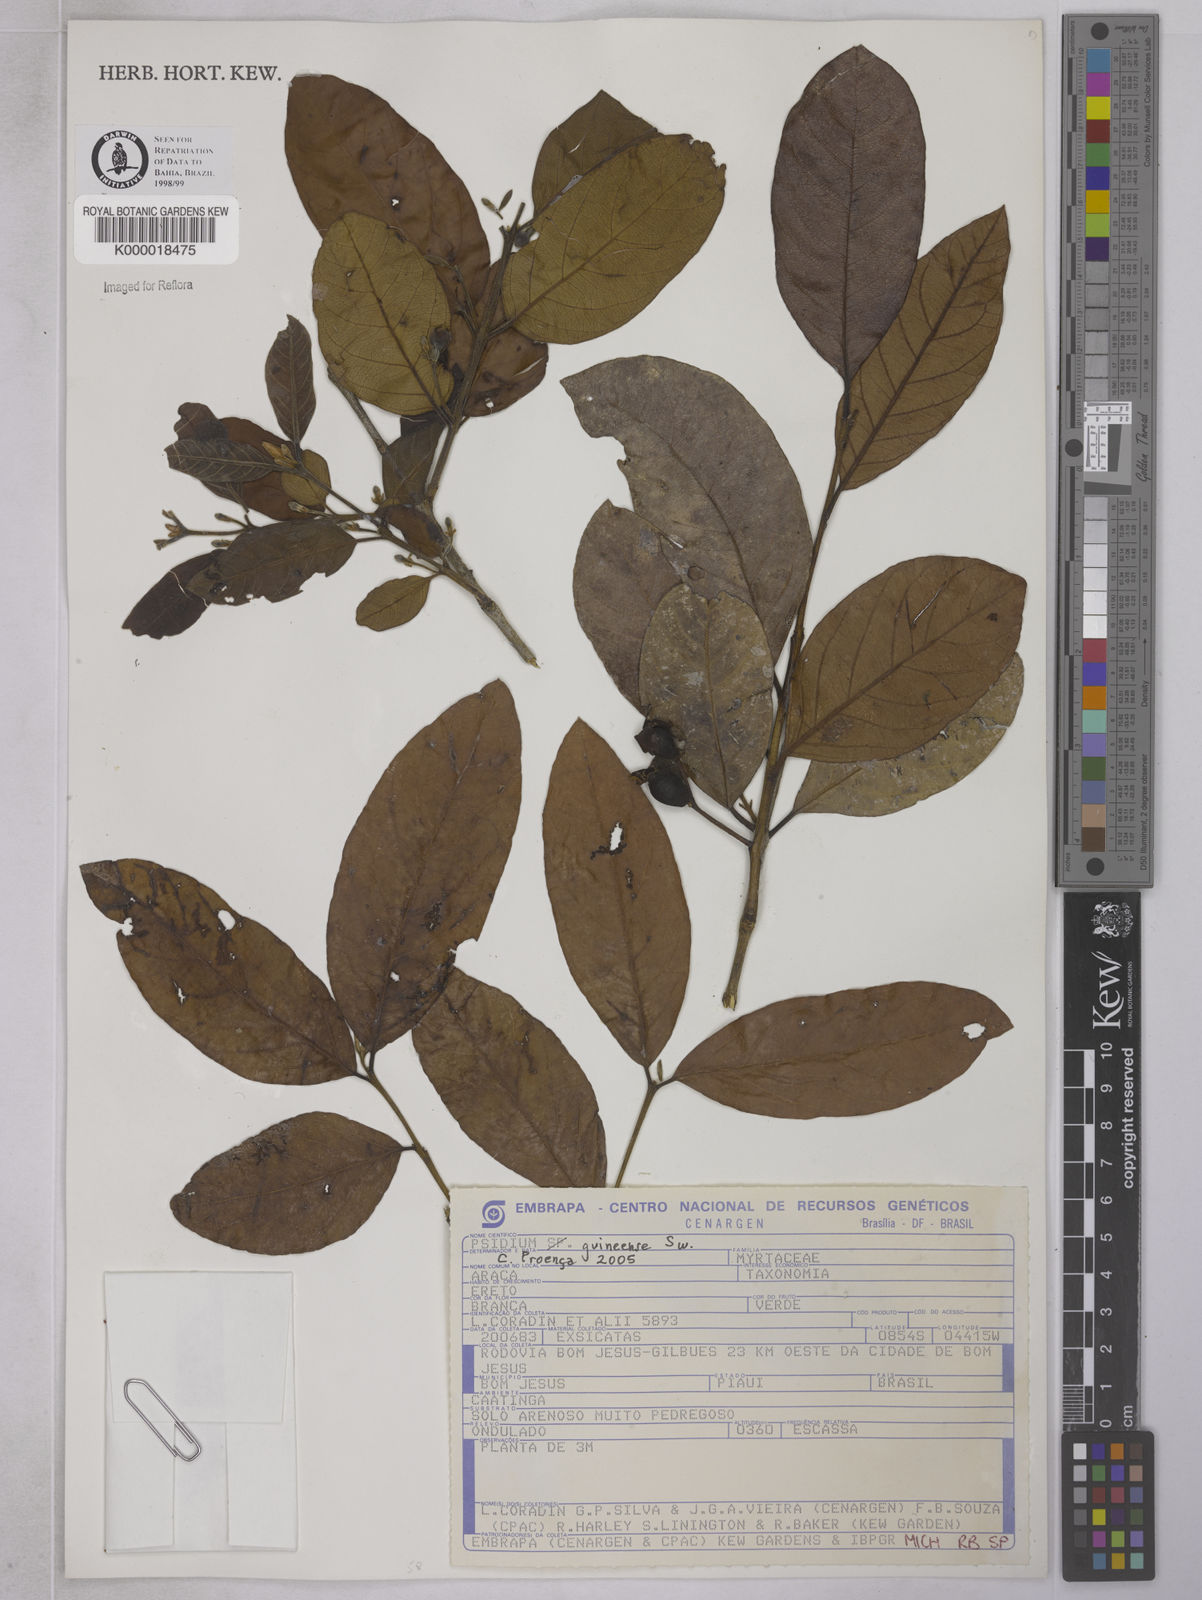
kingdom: Plantae
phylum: Tracheophyta
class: Magnoliopsida
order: Myrtales
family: Myrtaceae
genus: Psidium
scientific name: Psidium
